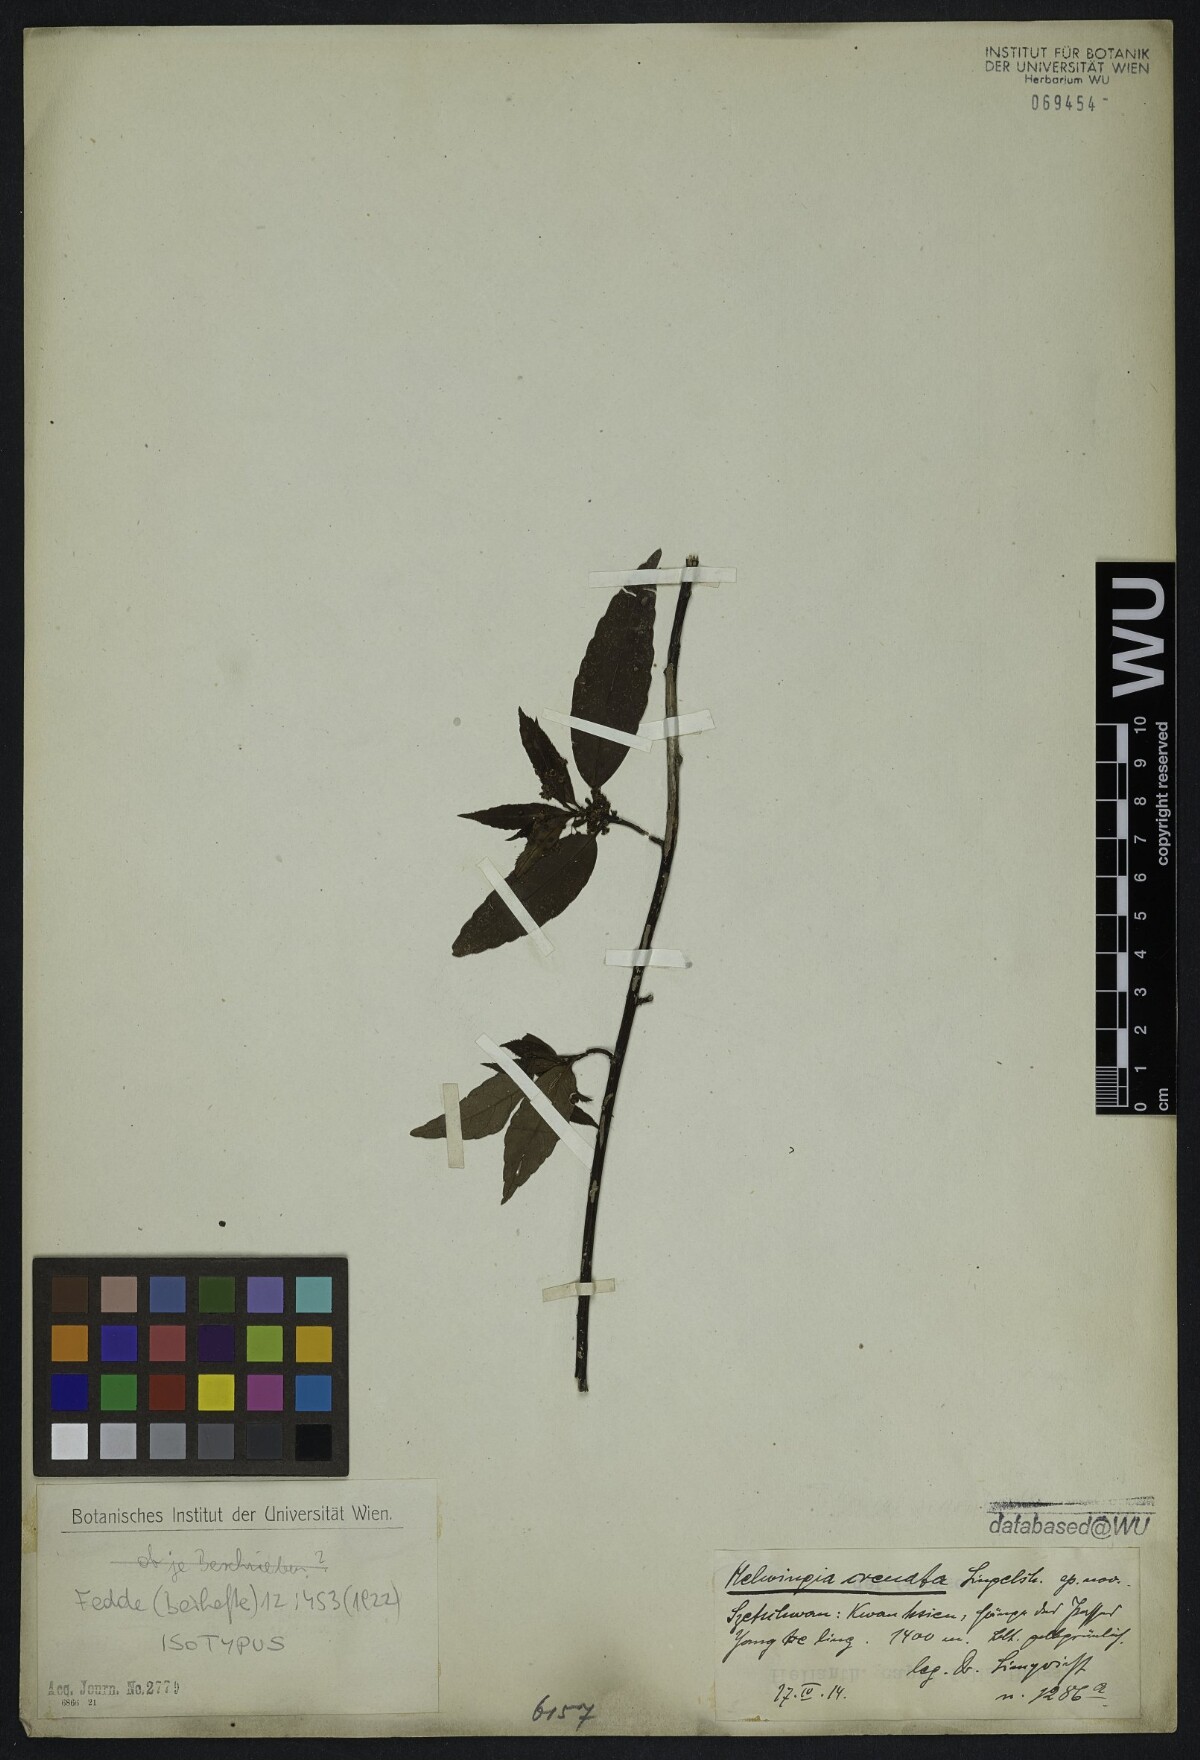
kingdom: Plantae
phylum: Tracheophyta
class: Magnoliopsida
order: Aquifoliales
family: Helwingiaceae
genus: Helwingia
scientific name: Helwingia crenata
